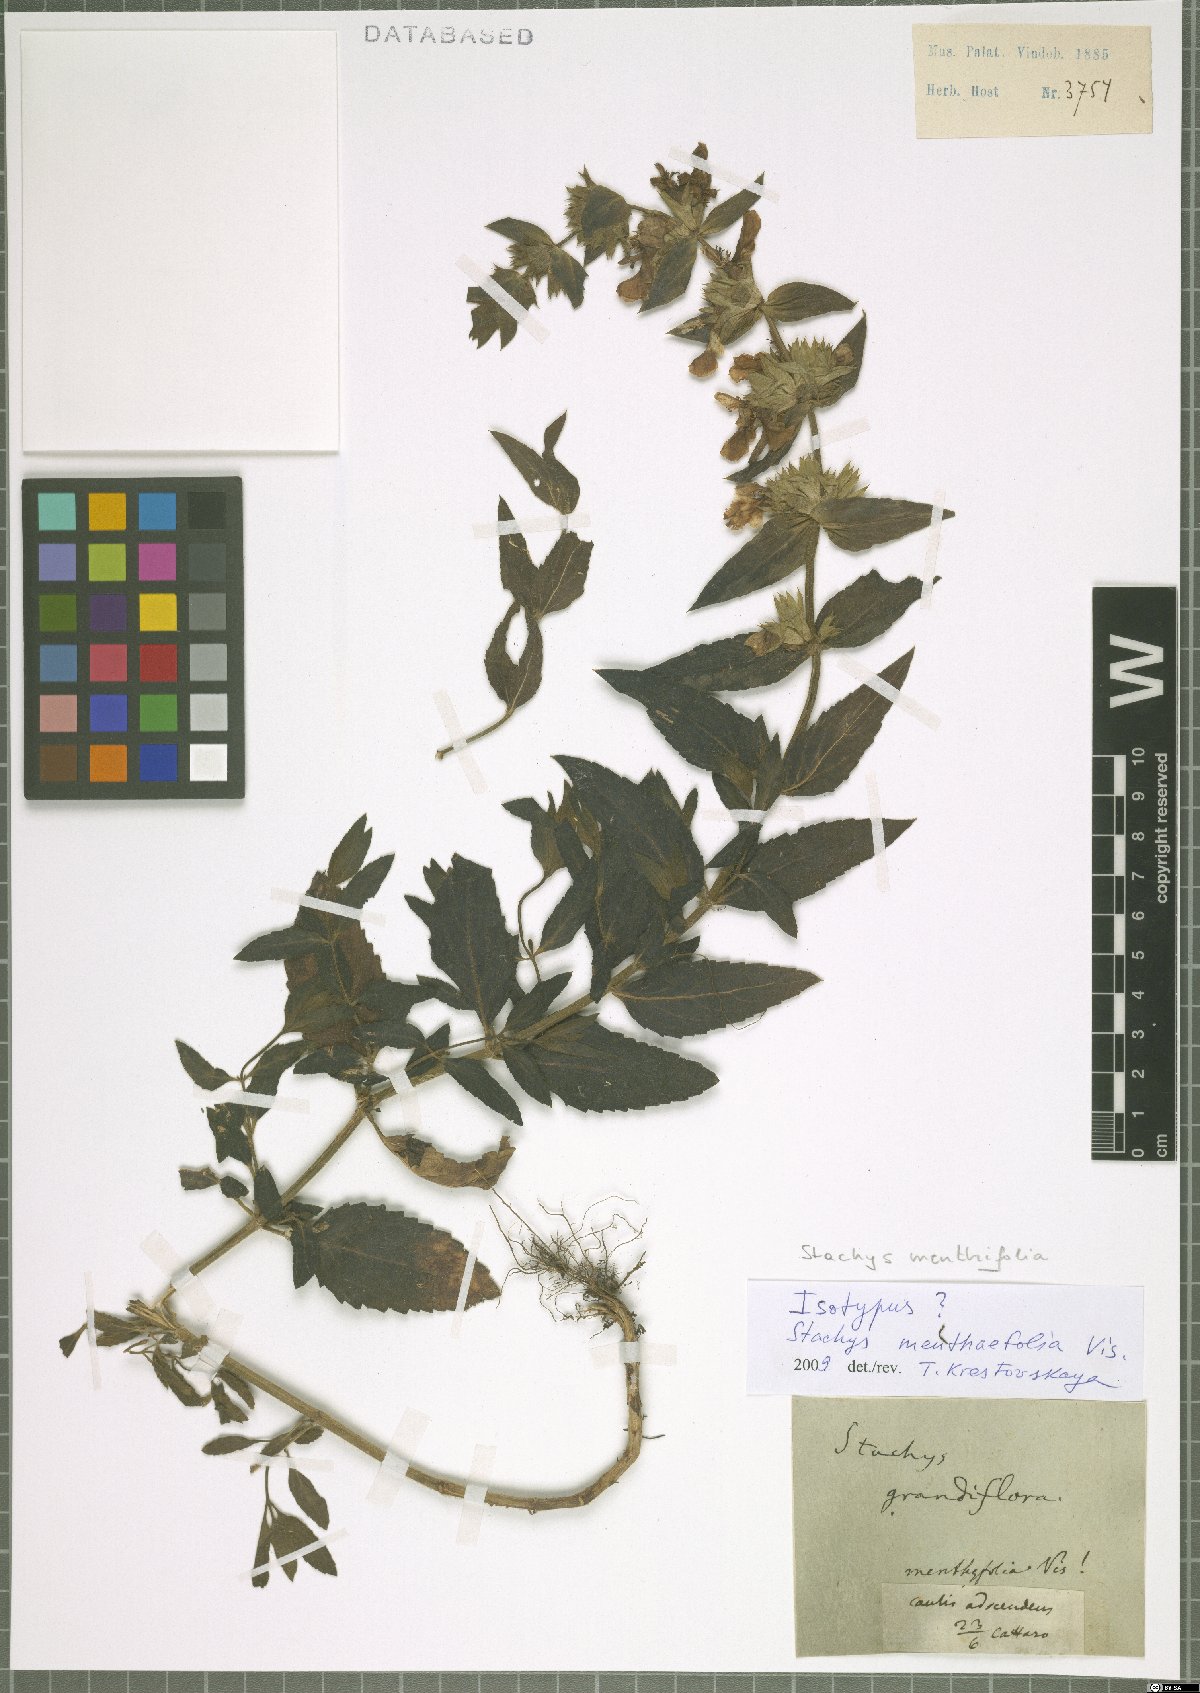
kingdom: Plantae
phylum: Tracheophyta
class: Magnoliopsida
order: Lamiales
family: Lamiaceae
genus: Stachys
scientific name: Stachys menthifolia
